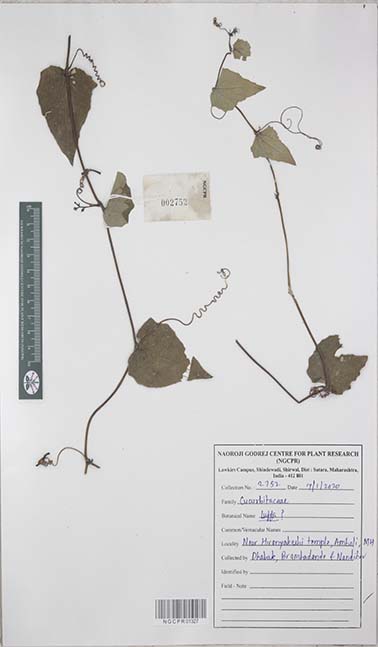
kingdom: Plantae
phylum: Tracheophyta
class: Magnoliopsida
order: Cucurbitales
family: Cucurbitaceae
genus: Luffa
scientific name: Luffa
